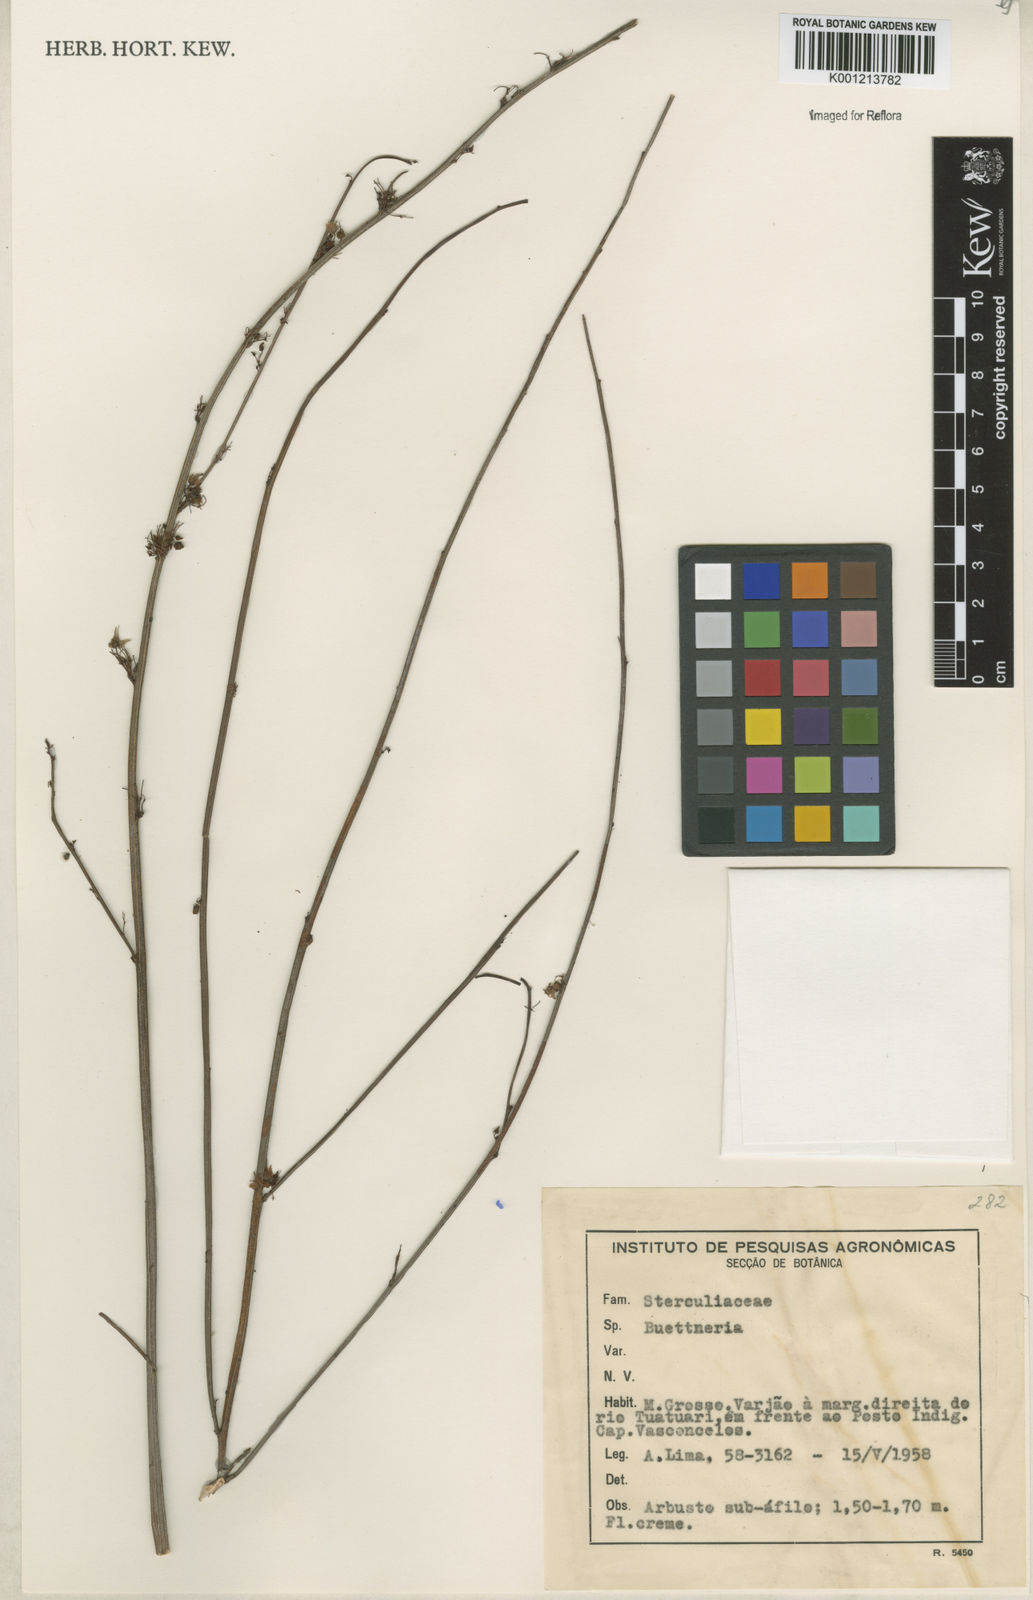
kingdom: Plantae
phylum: Tracheophyta
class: Magnoliopsida
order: Malvales
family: Malvaceae
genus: Byttneria
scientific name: Byttneria
